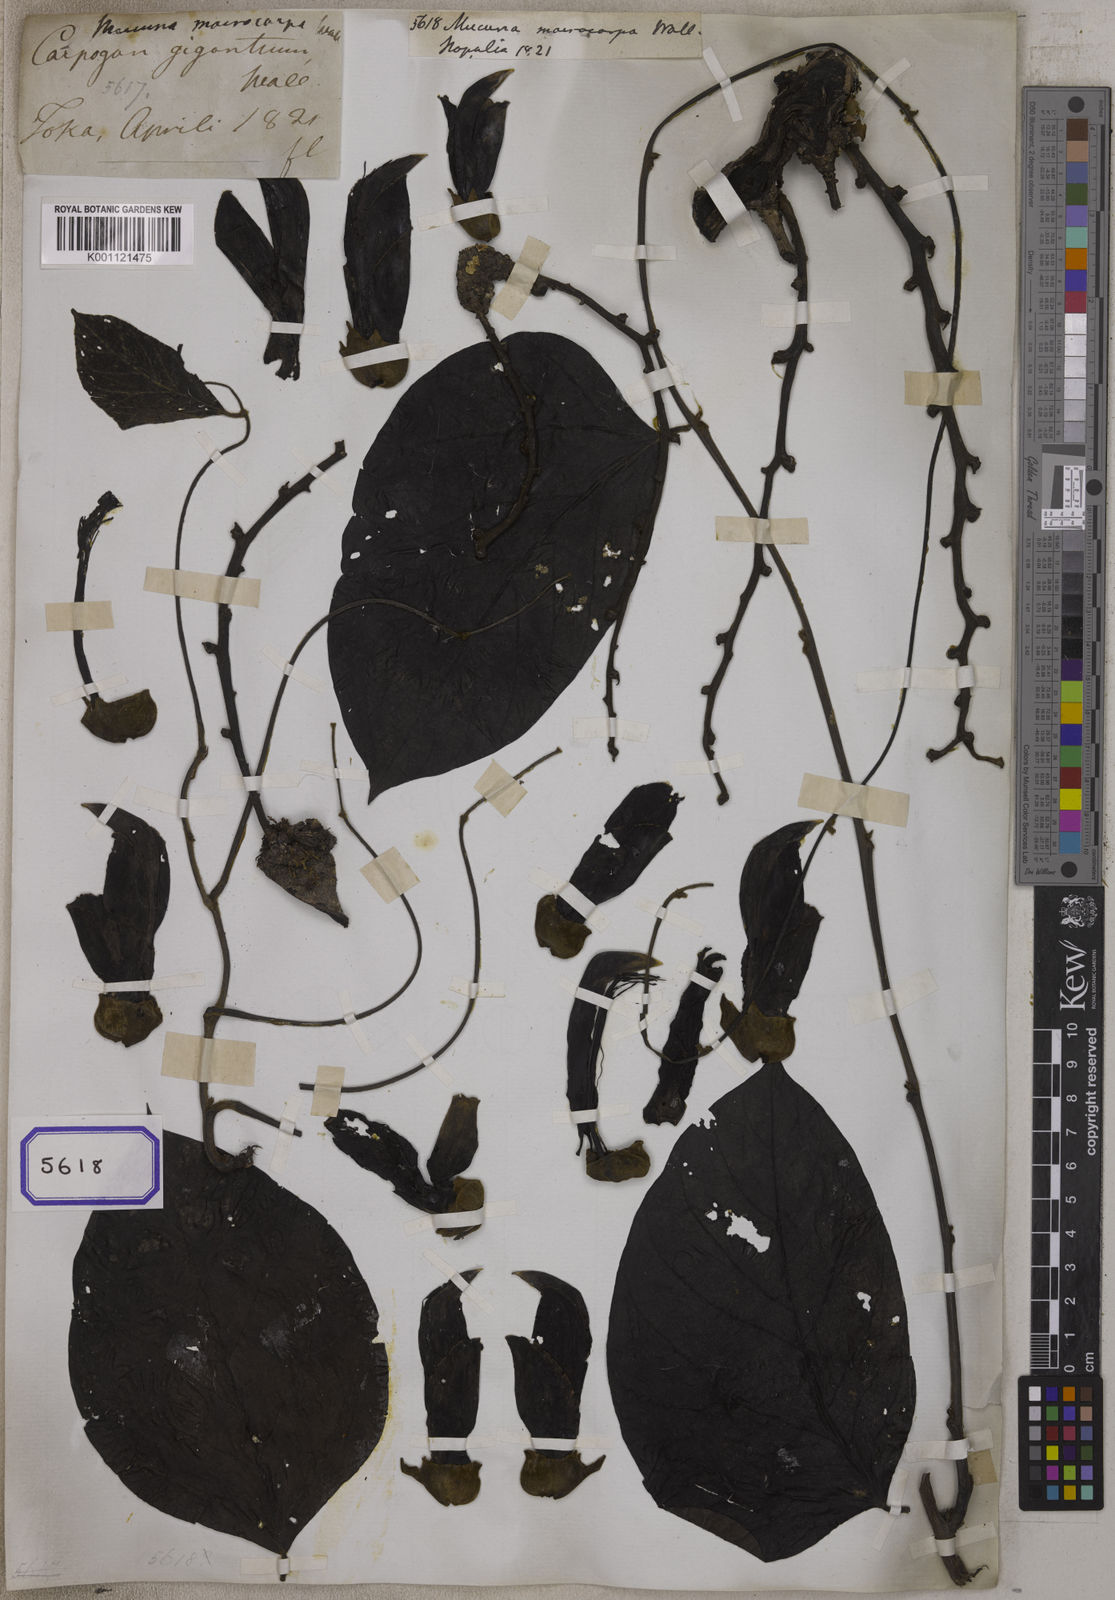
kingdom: Plantae
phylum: Tracheophyta
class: Magnoliopsida
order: Fabales
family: Fabaceae
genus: Mucuna
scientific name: Mucuna macrocarpa
